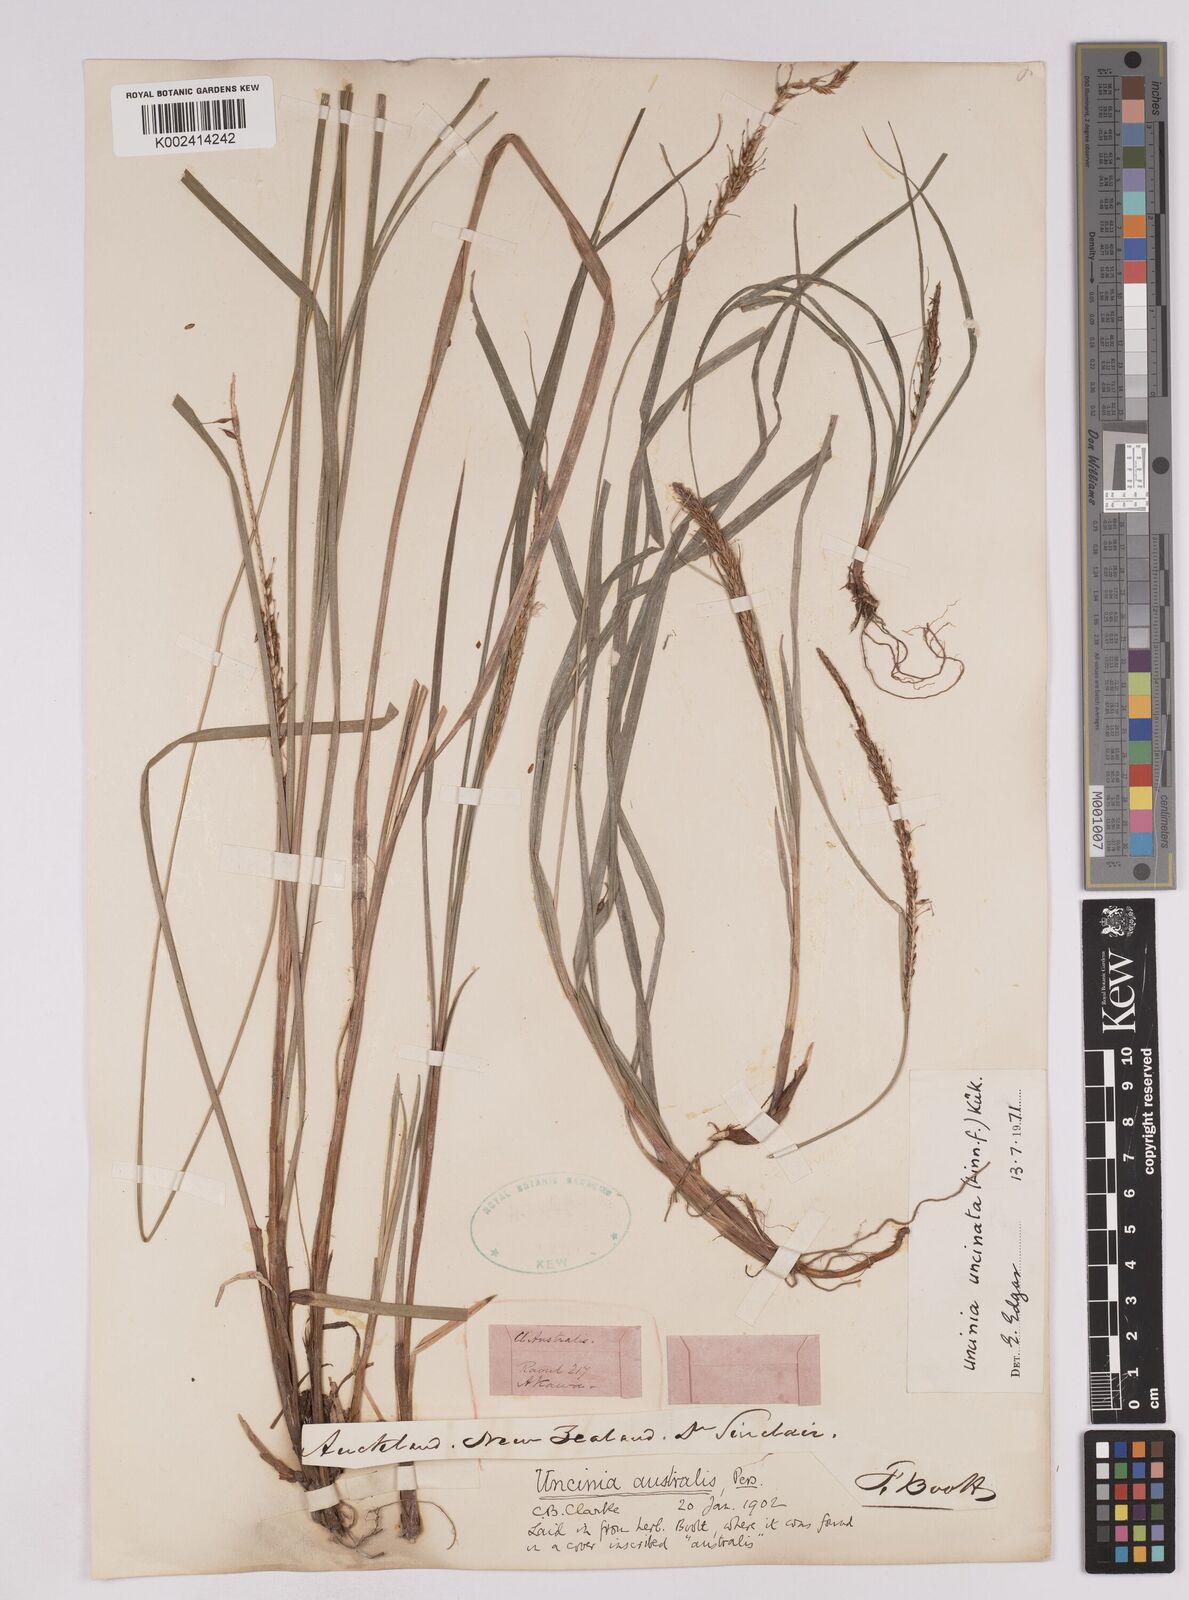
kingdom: Plantae
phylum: Tracheophyta
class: Liliopsida
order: Poales
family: Cyperaceae
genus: Carex
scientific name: Carex uncinata
